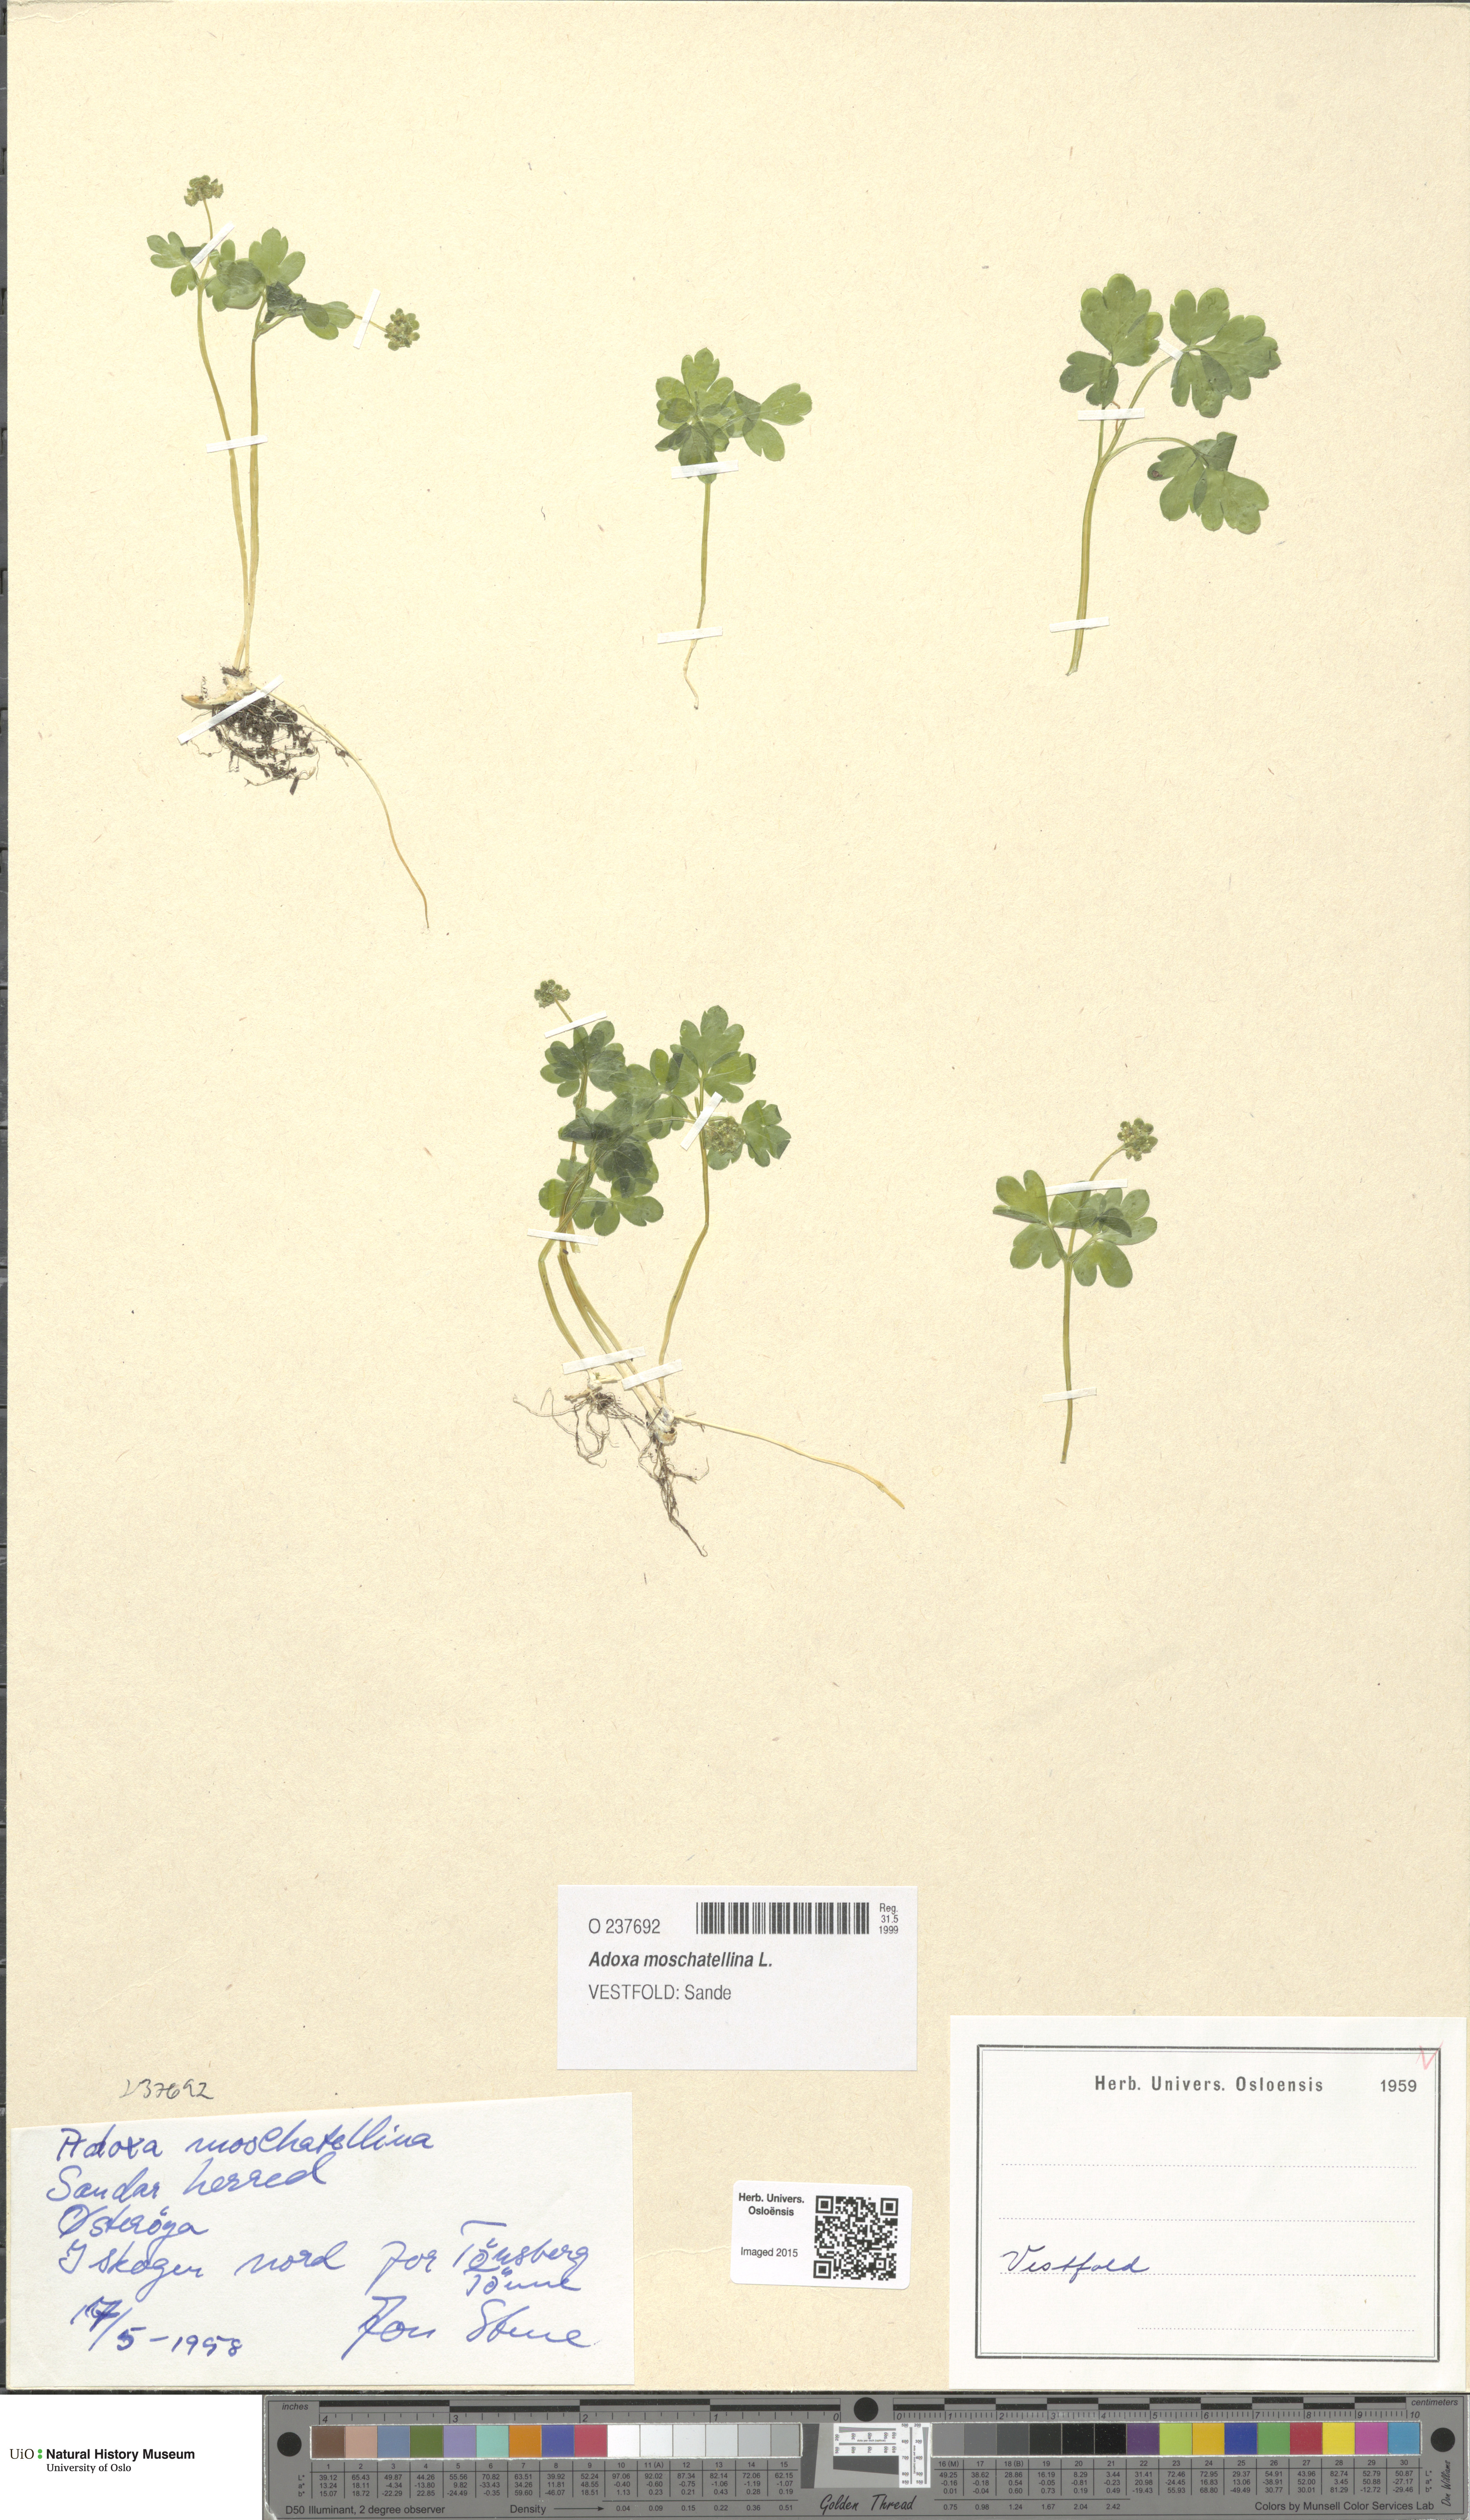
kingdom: Plantae
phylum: Tracheophyta
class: Magnoliopsida
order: Dipsacales
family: Viburnaceae
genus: Adoxa
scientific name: Adoxa moschatellina
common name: Moschatel
